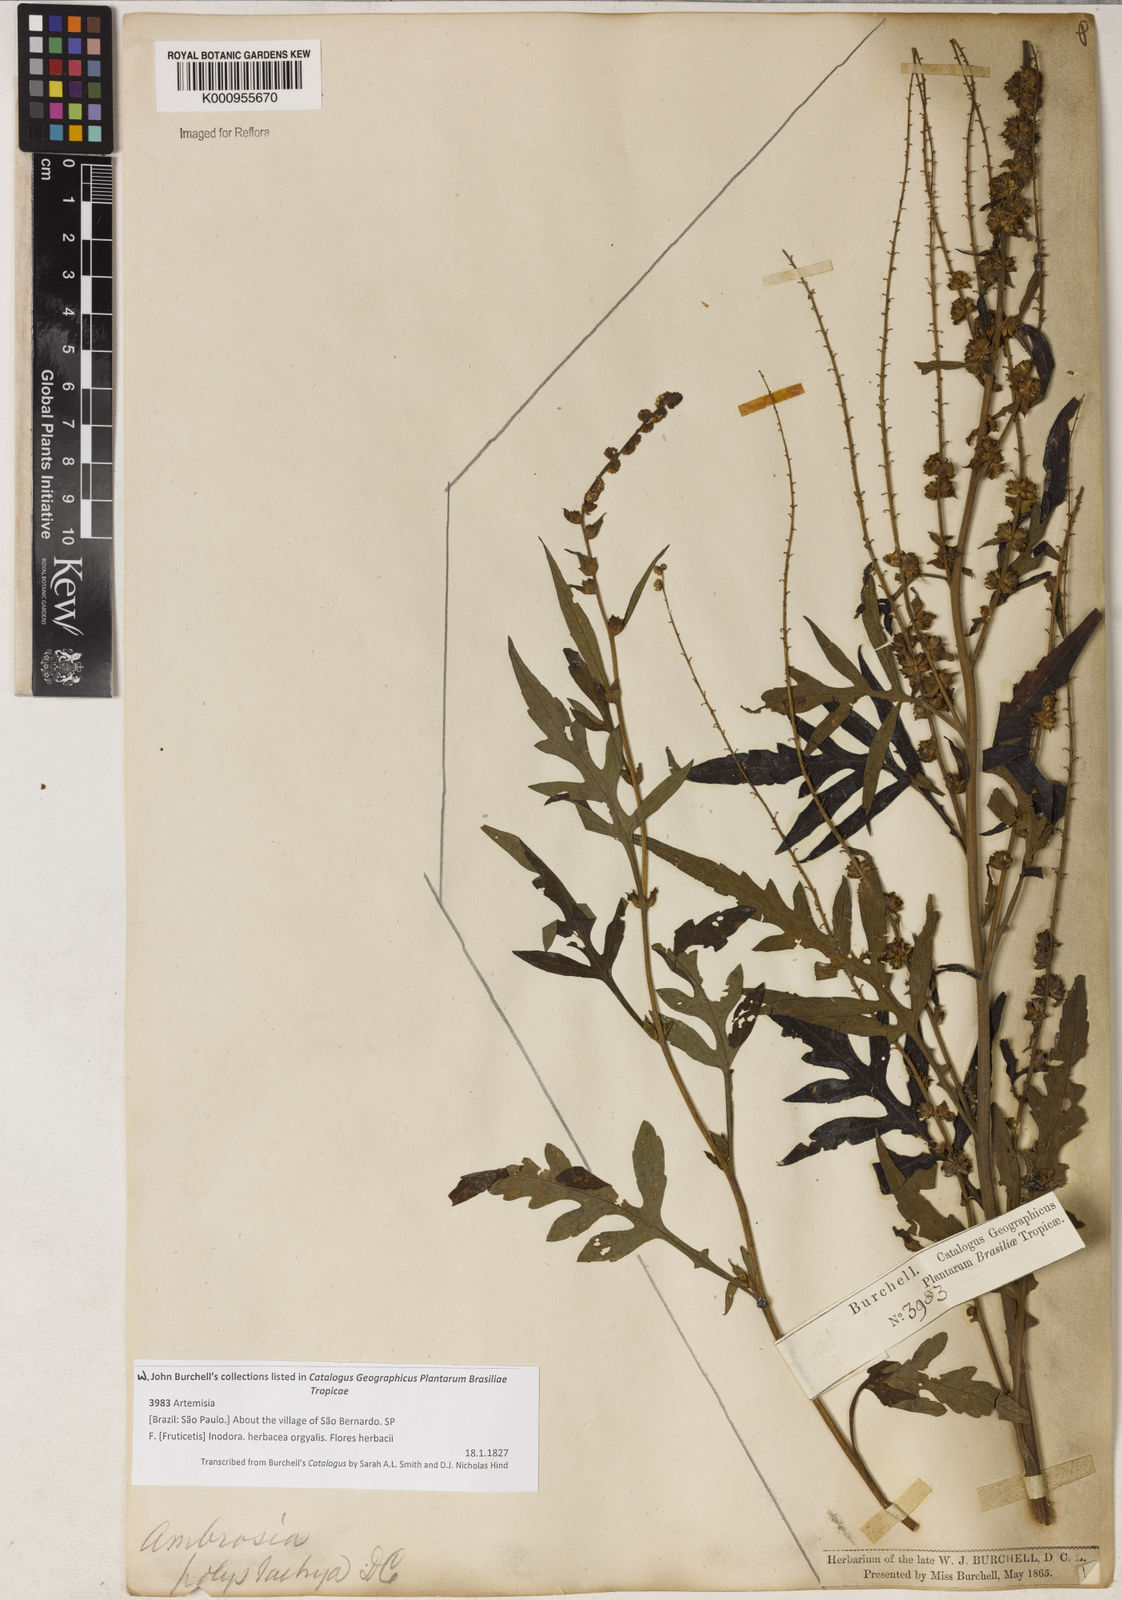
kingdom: Plantae
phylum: Tracheophyta
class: Magnoliopsida
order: Asterales
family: Asteraceae
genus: Ambrosia
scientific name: Ambrosia polystachya
